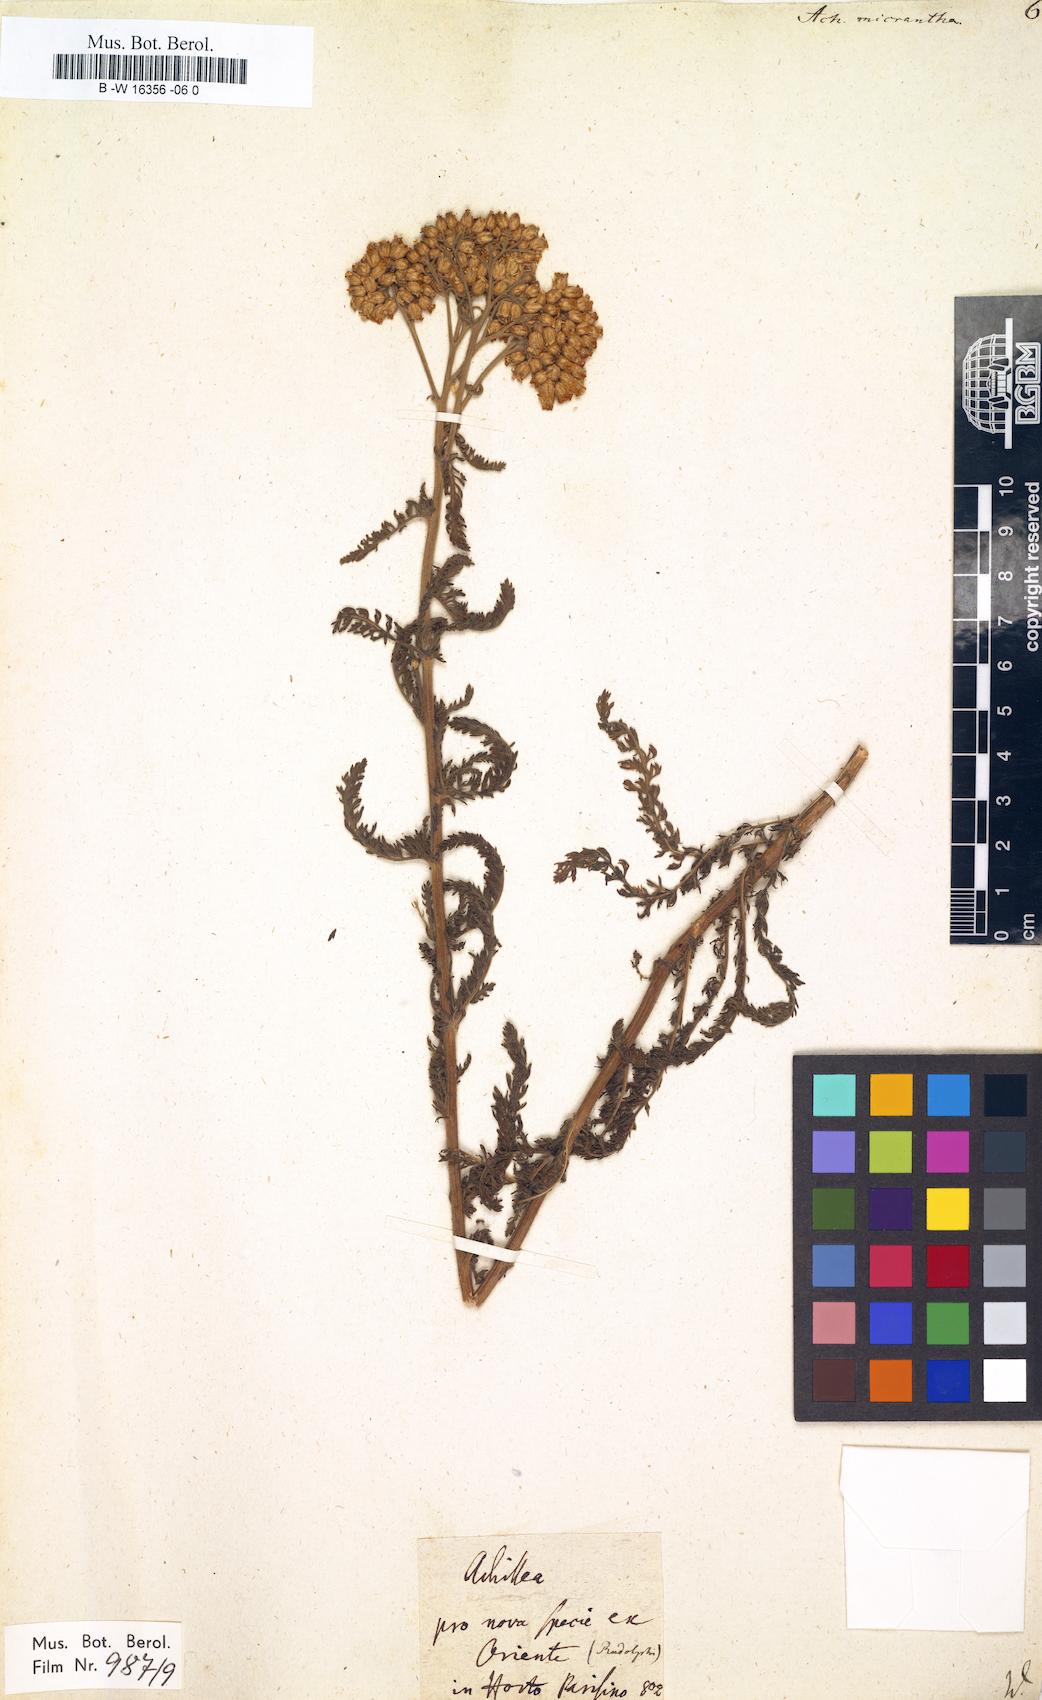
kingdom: Plantae
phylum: Tracheophyta
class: Magnoliopsida
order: Asterales
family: Asteraceae
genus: Achillea
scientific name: Achillea arabica
